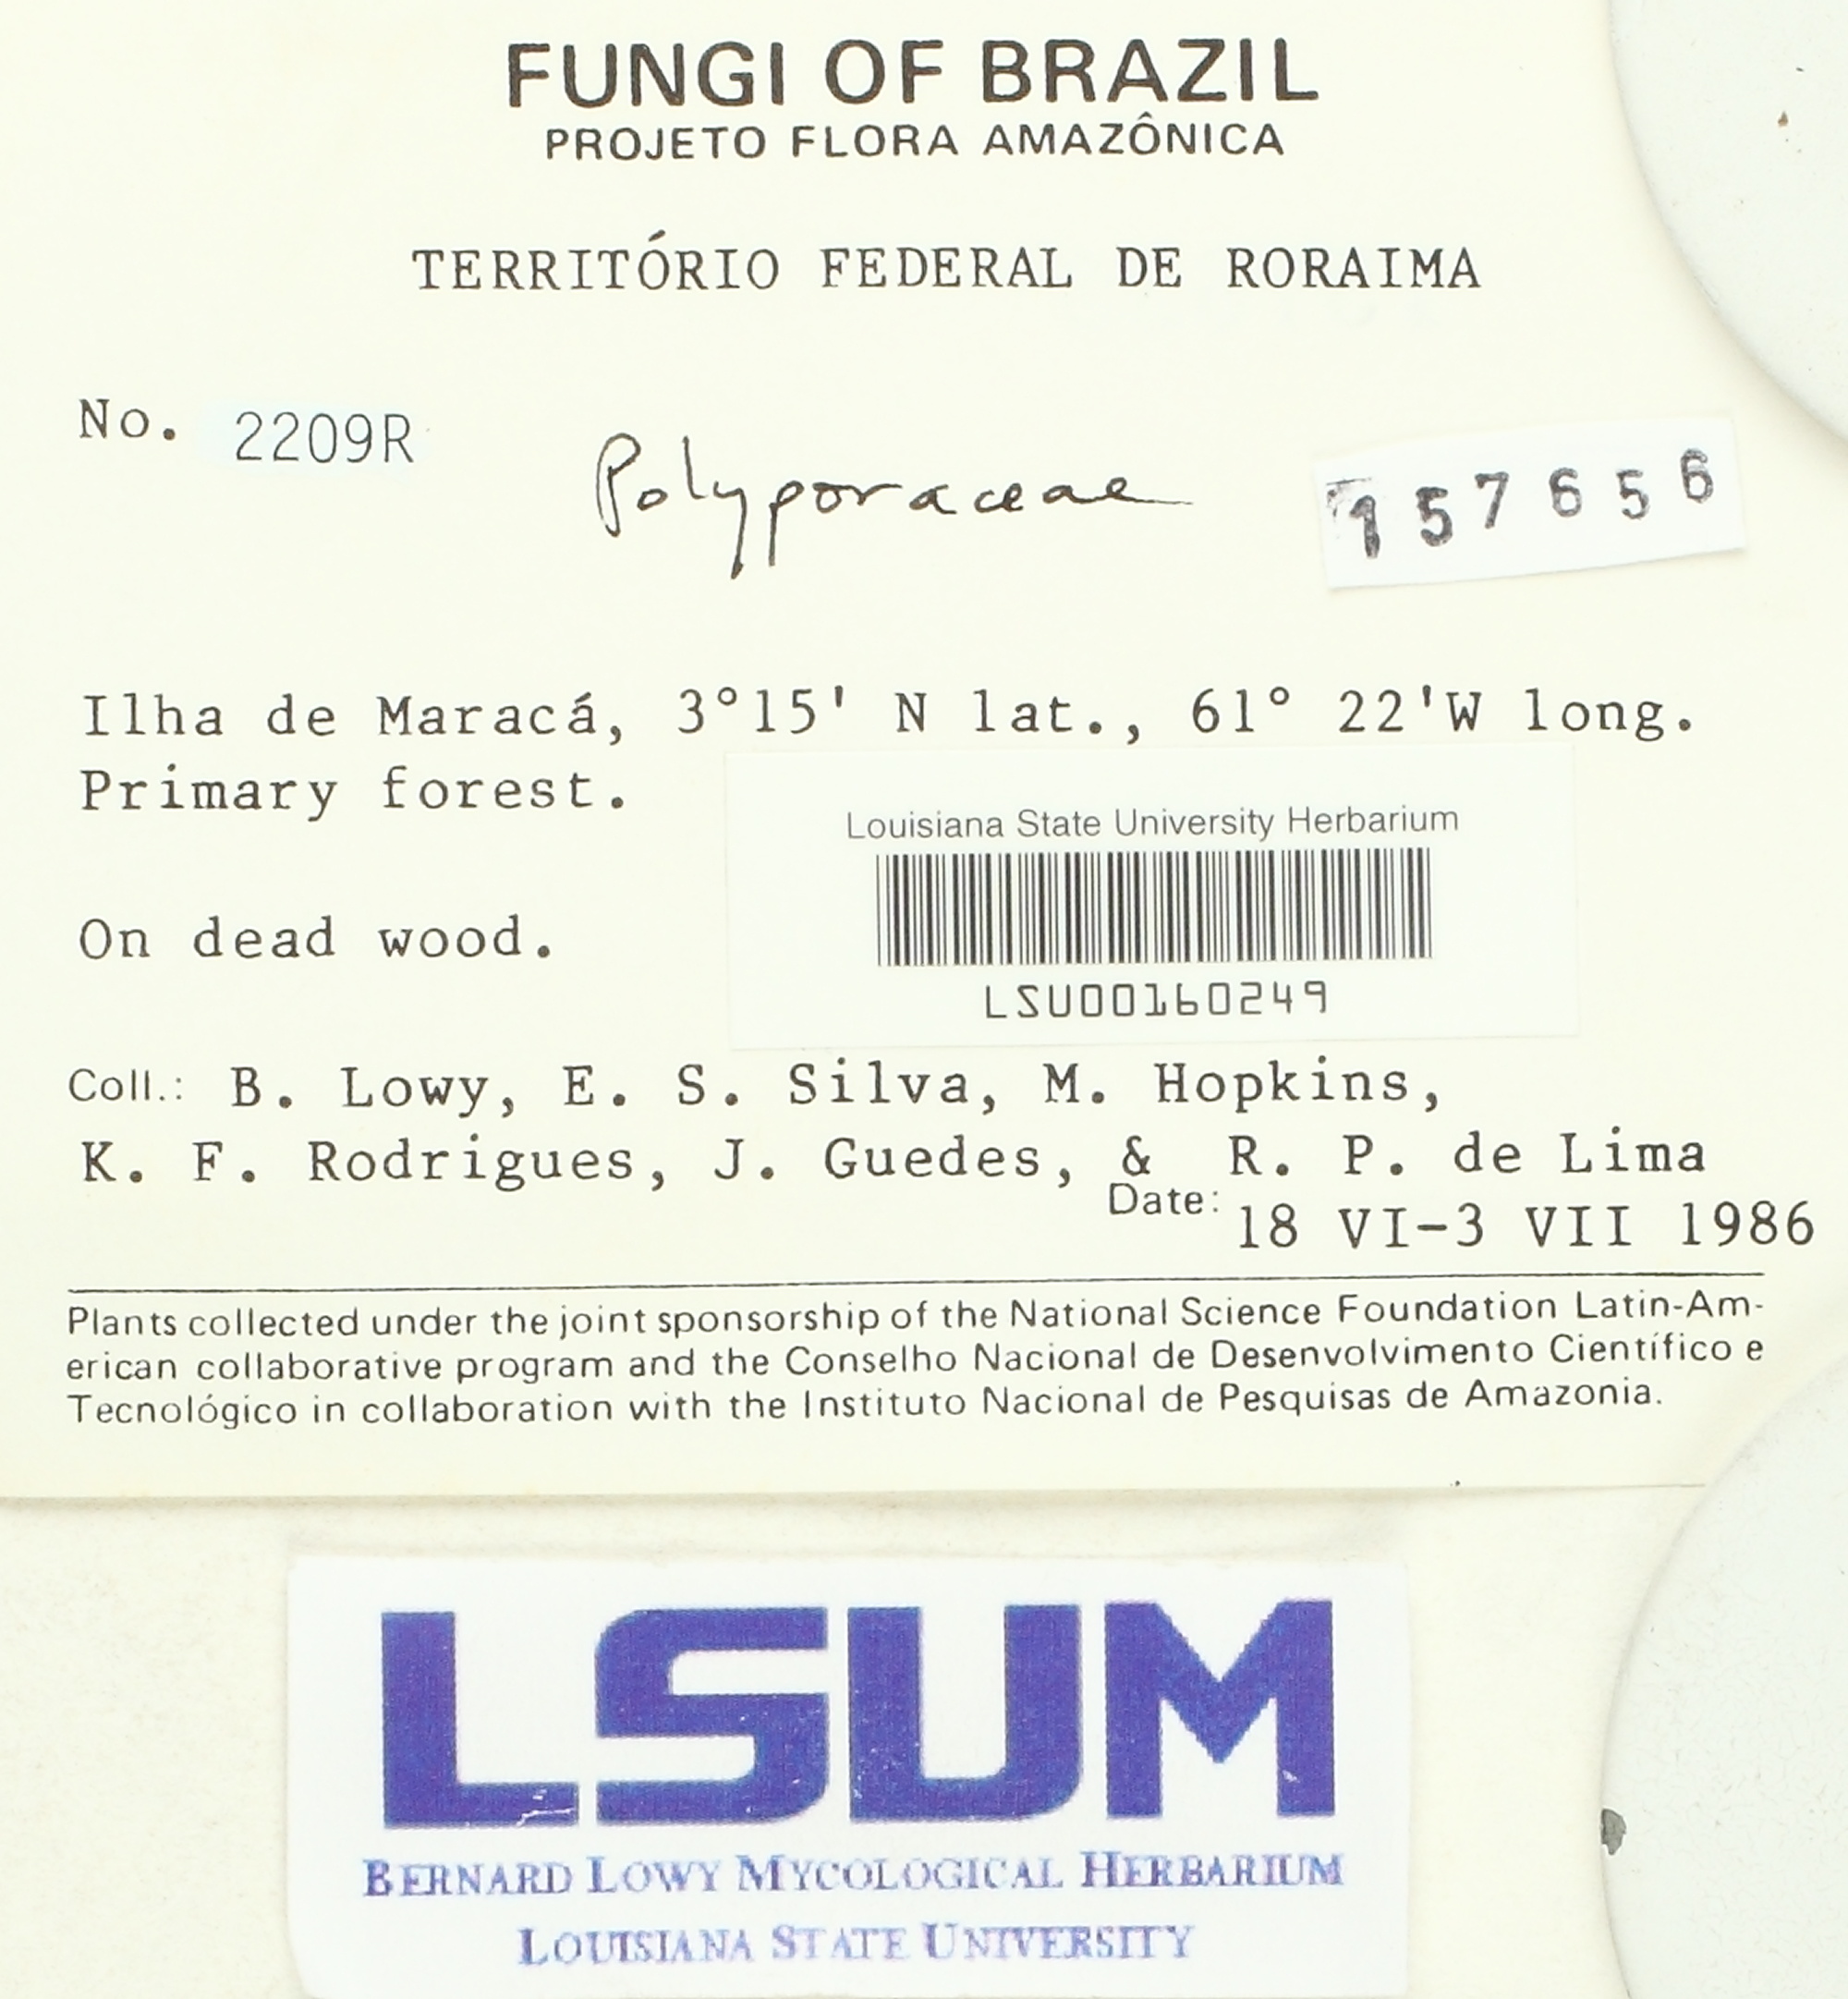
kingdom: Fungi
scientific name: Fungi
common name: Fungi
